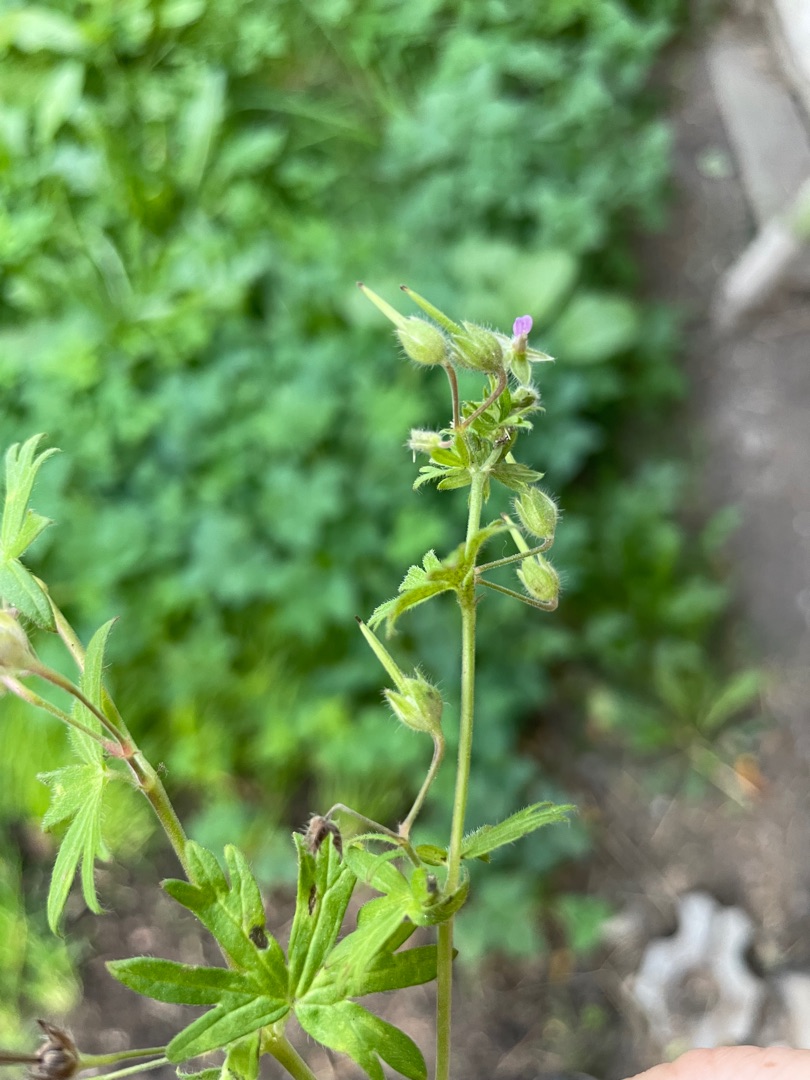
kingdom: Plantae
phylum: Tracheophyta
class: Magnoliopsida
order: Geraniales
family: Geraniaceae
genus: Geranium
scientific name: Geranium pusillum
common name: Liden storkenæb
